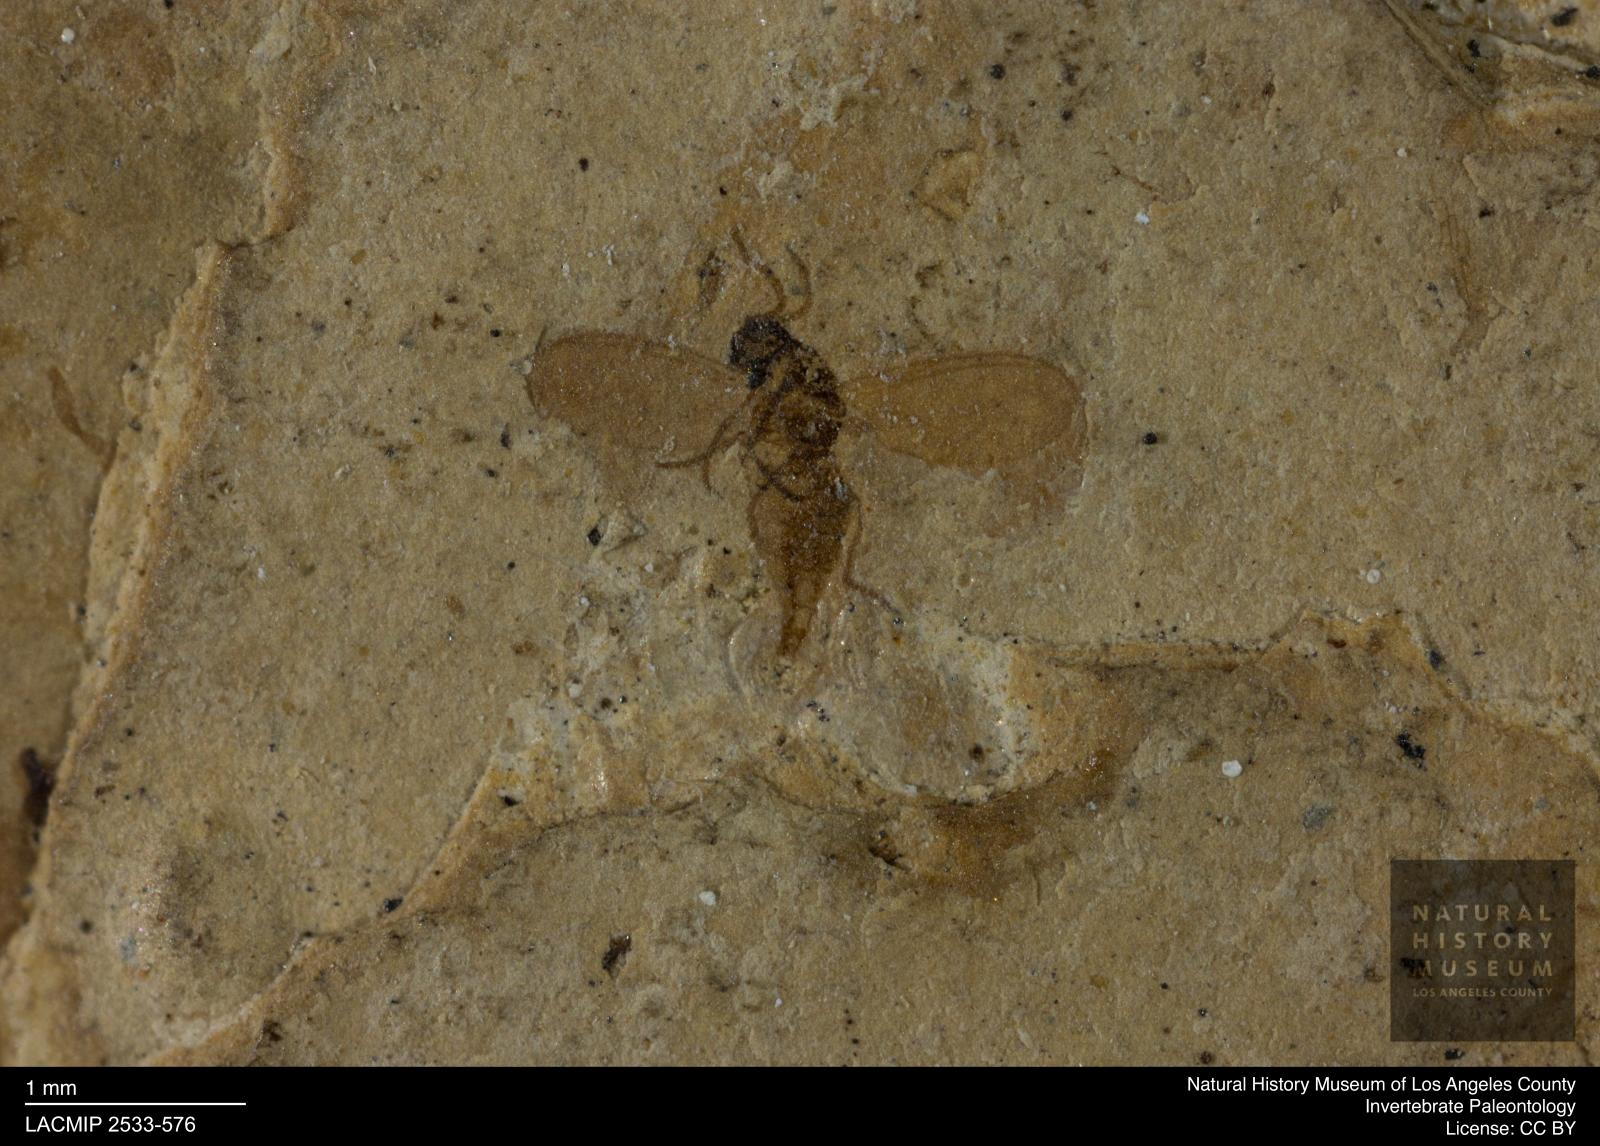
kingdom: Animalia
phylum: Arthropoda
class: Insecta
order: Diptera
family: Sciaridae
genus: Sciara
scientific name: Sciara Lycoria exilis
